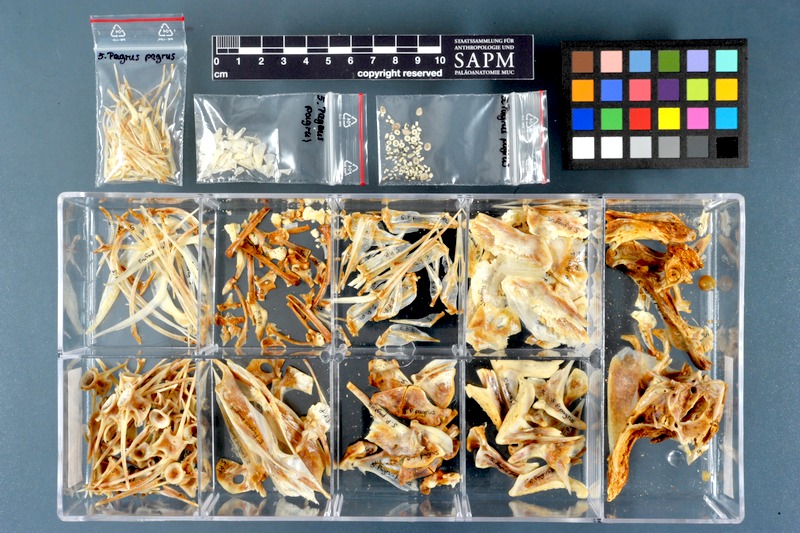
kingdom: Animalia
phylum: Chordata
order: Perciformes
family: Sparidae
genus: Pagrus
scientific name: Pagrus pagrus
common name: Red porgy
